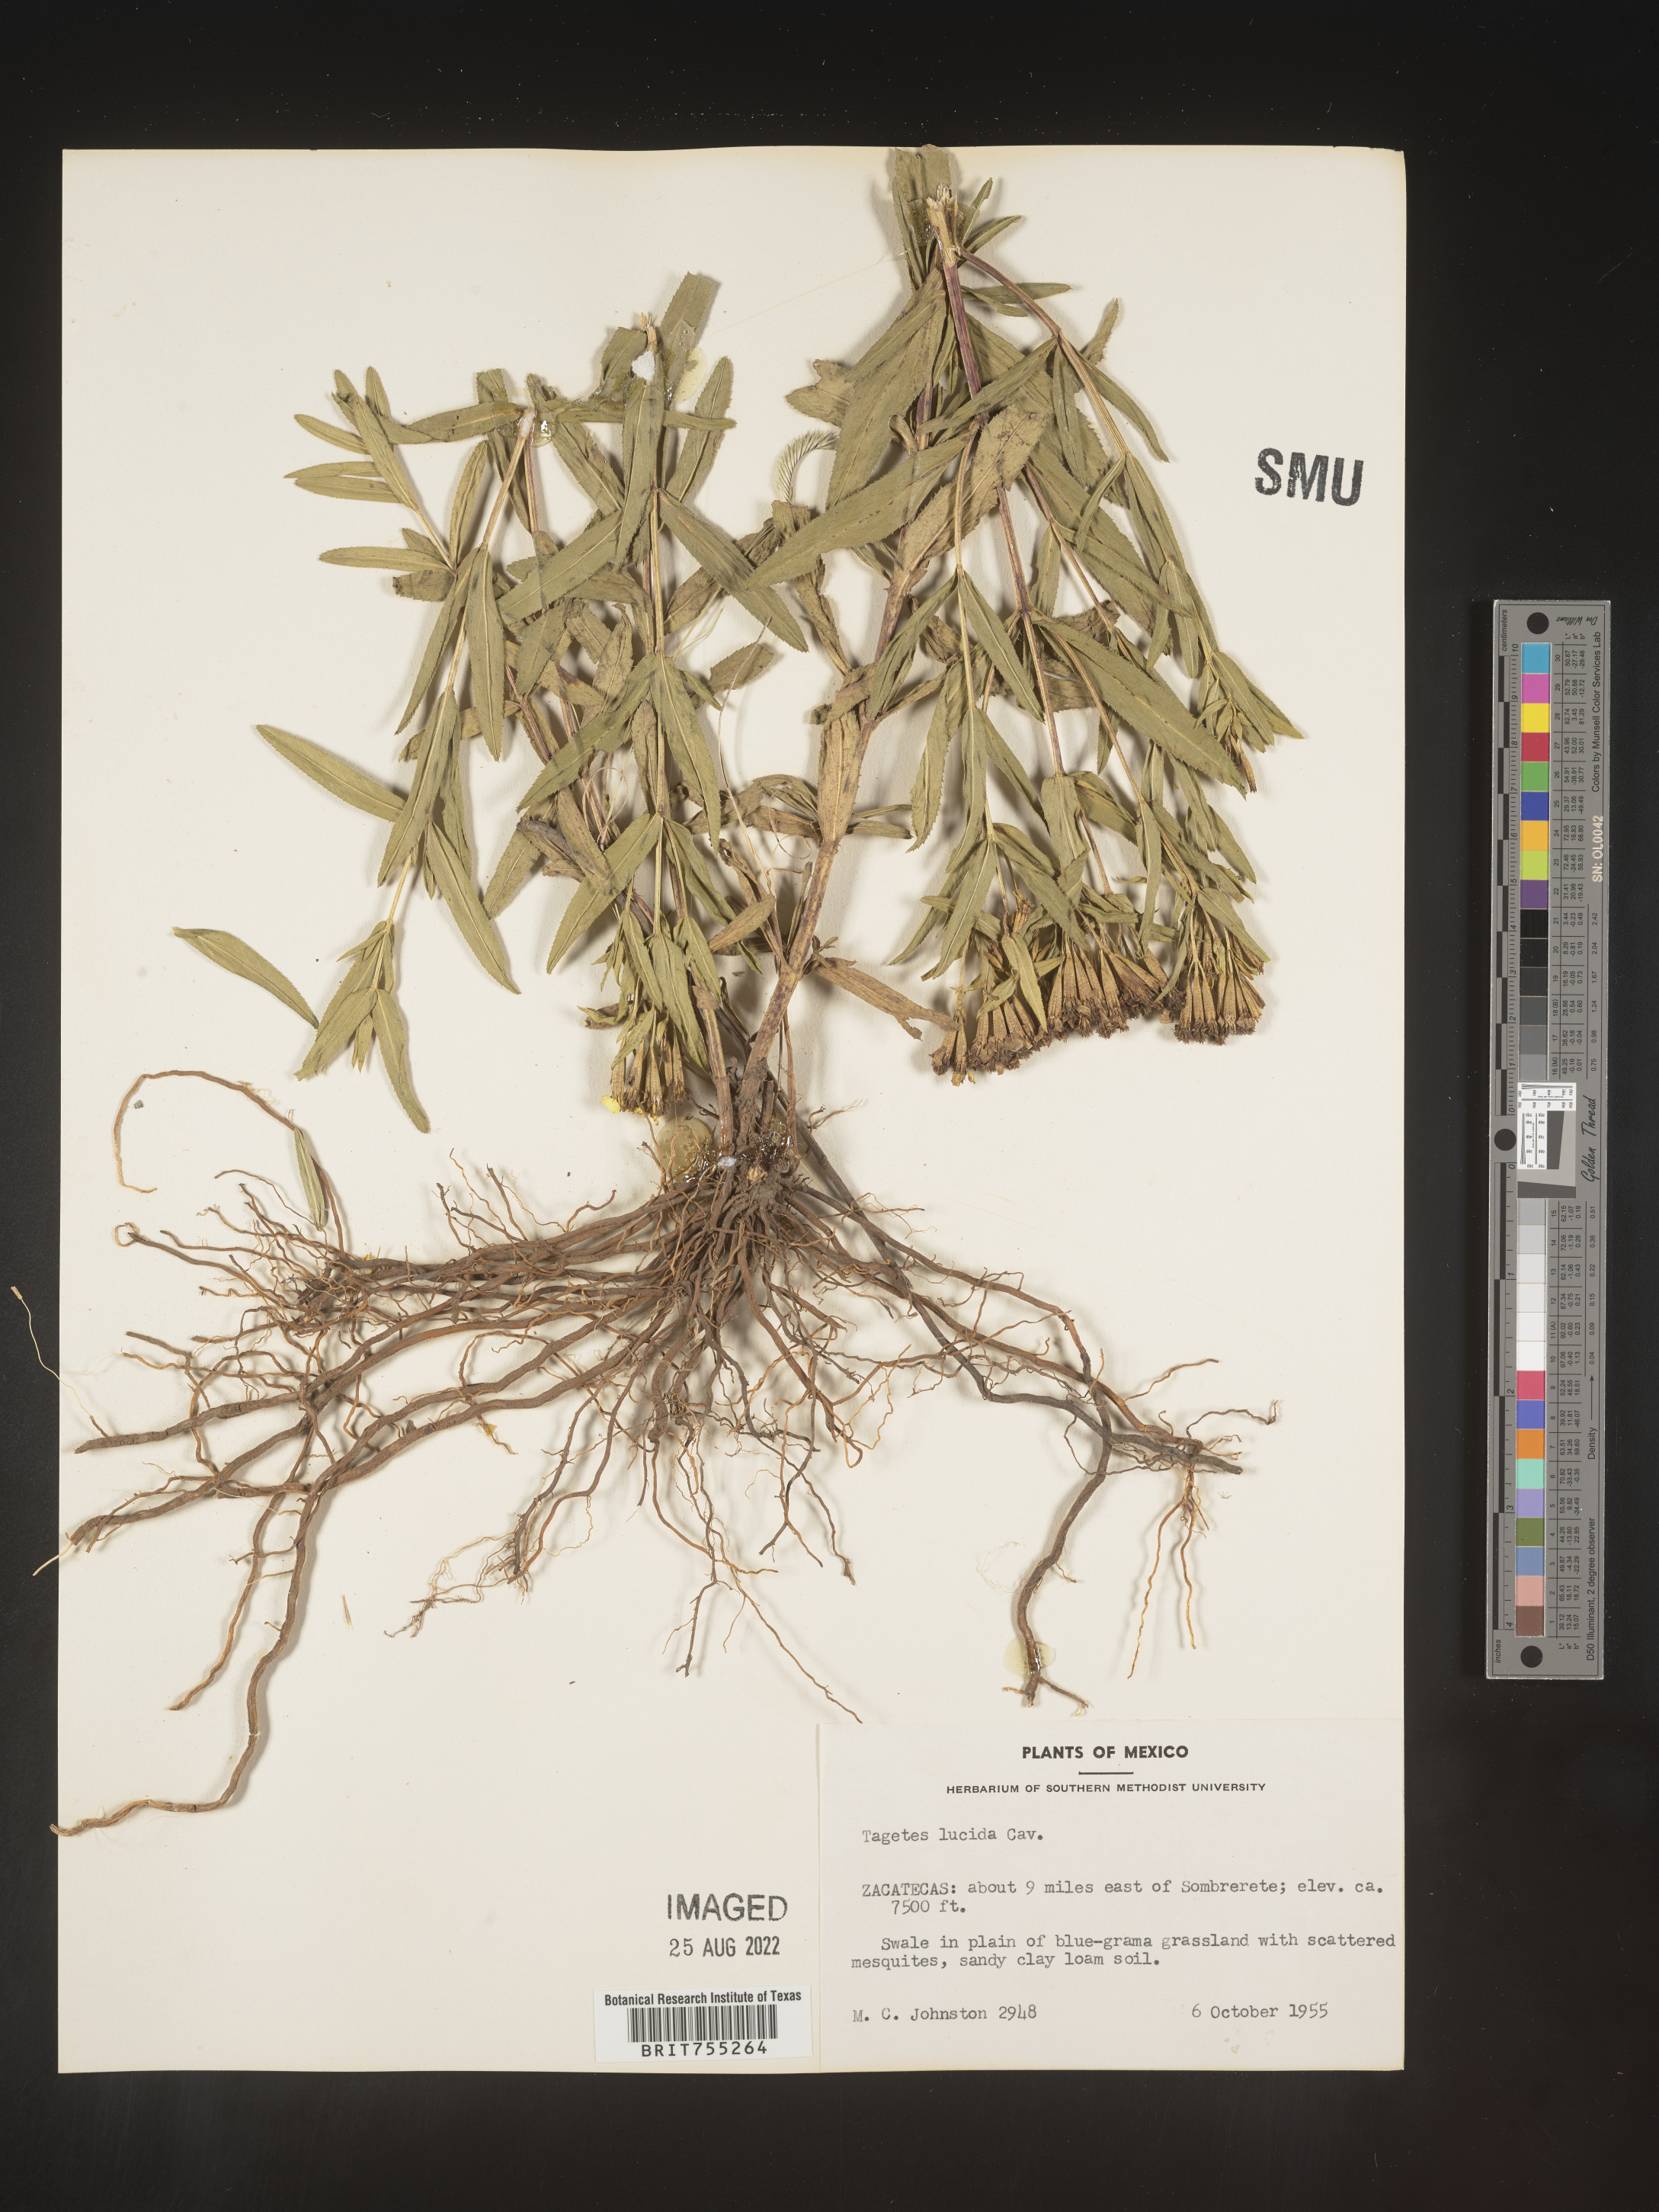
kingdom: Plantae
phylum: Tracheophyta
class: Magnoliopsida
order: Asterales
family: Asteraceae
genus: Tagetes
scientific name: Tagetes lucida
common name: Sweetscented marigold
